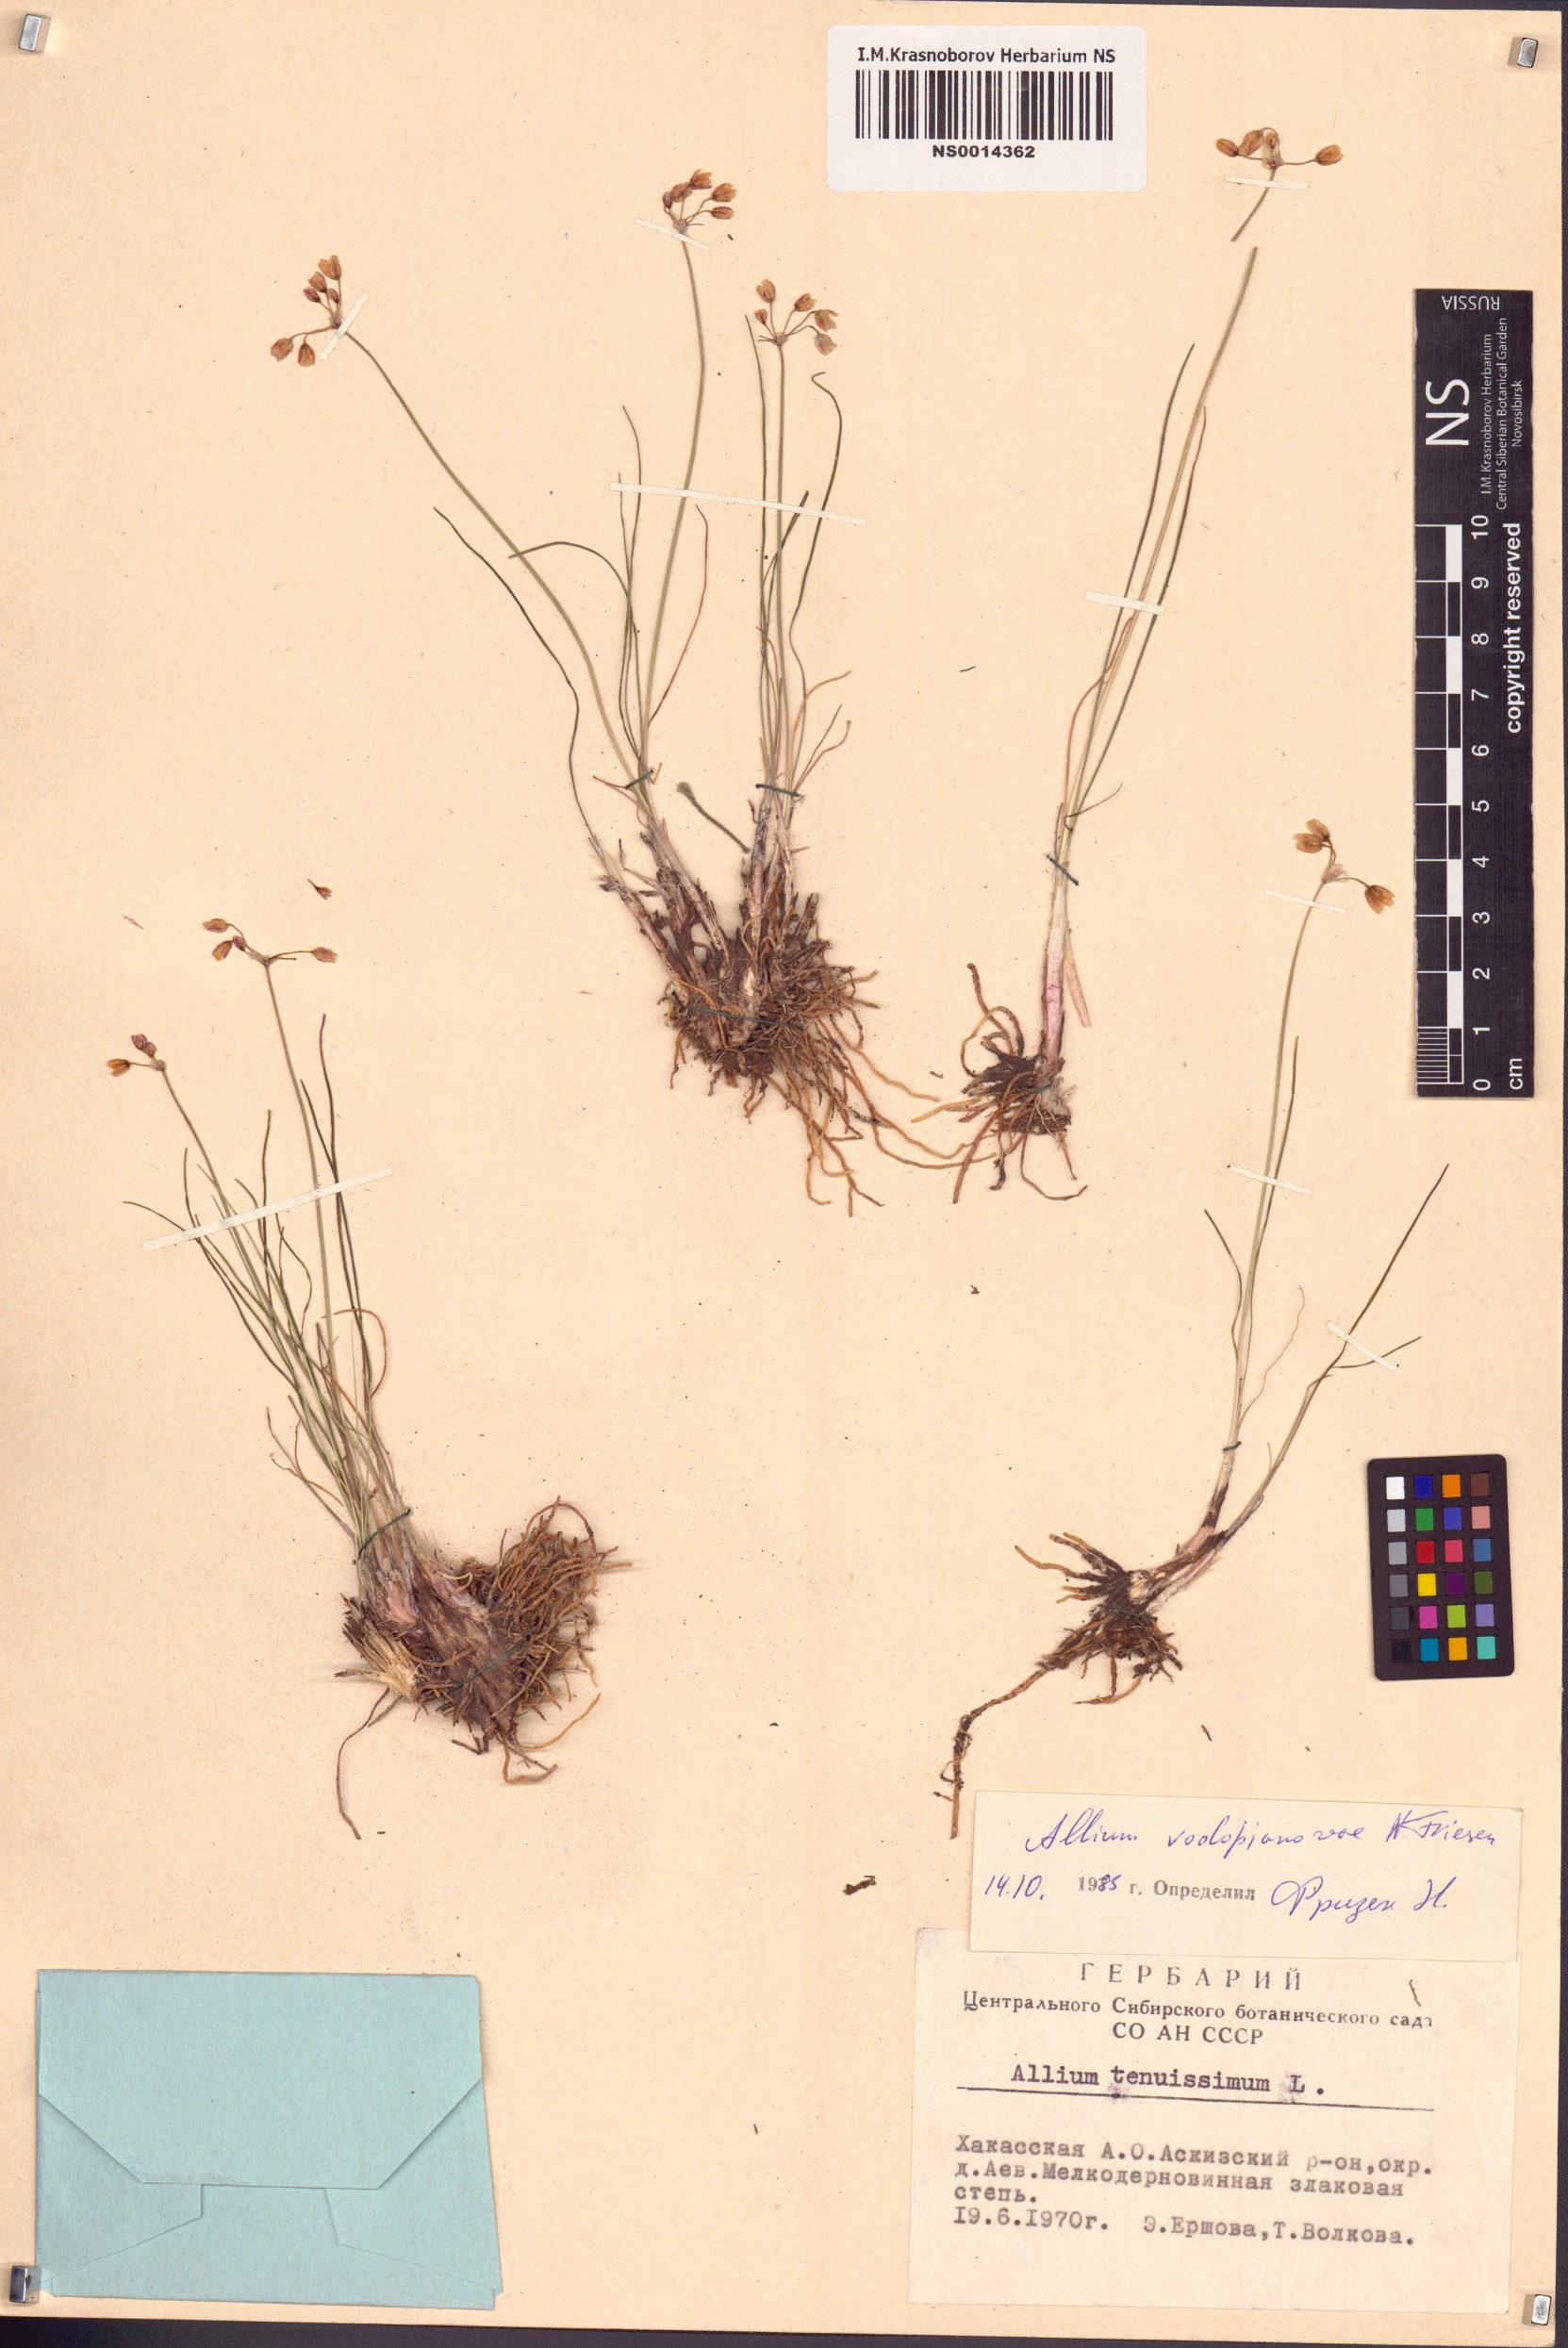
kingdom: Plantae
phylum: Tracheophyta
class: Liliopsida
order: Asparagales
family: Amaryllidaceae
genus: Allium
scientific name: Allium vodopjanovae
